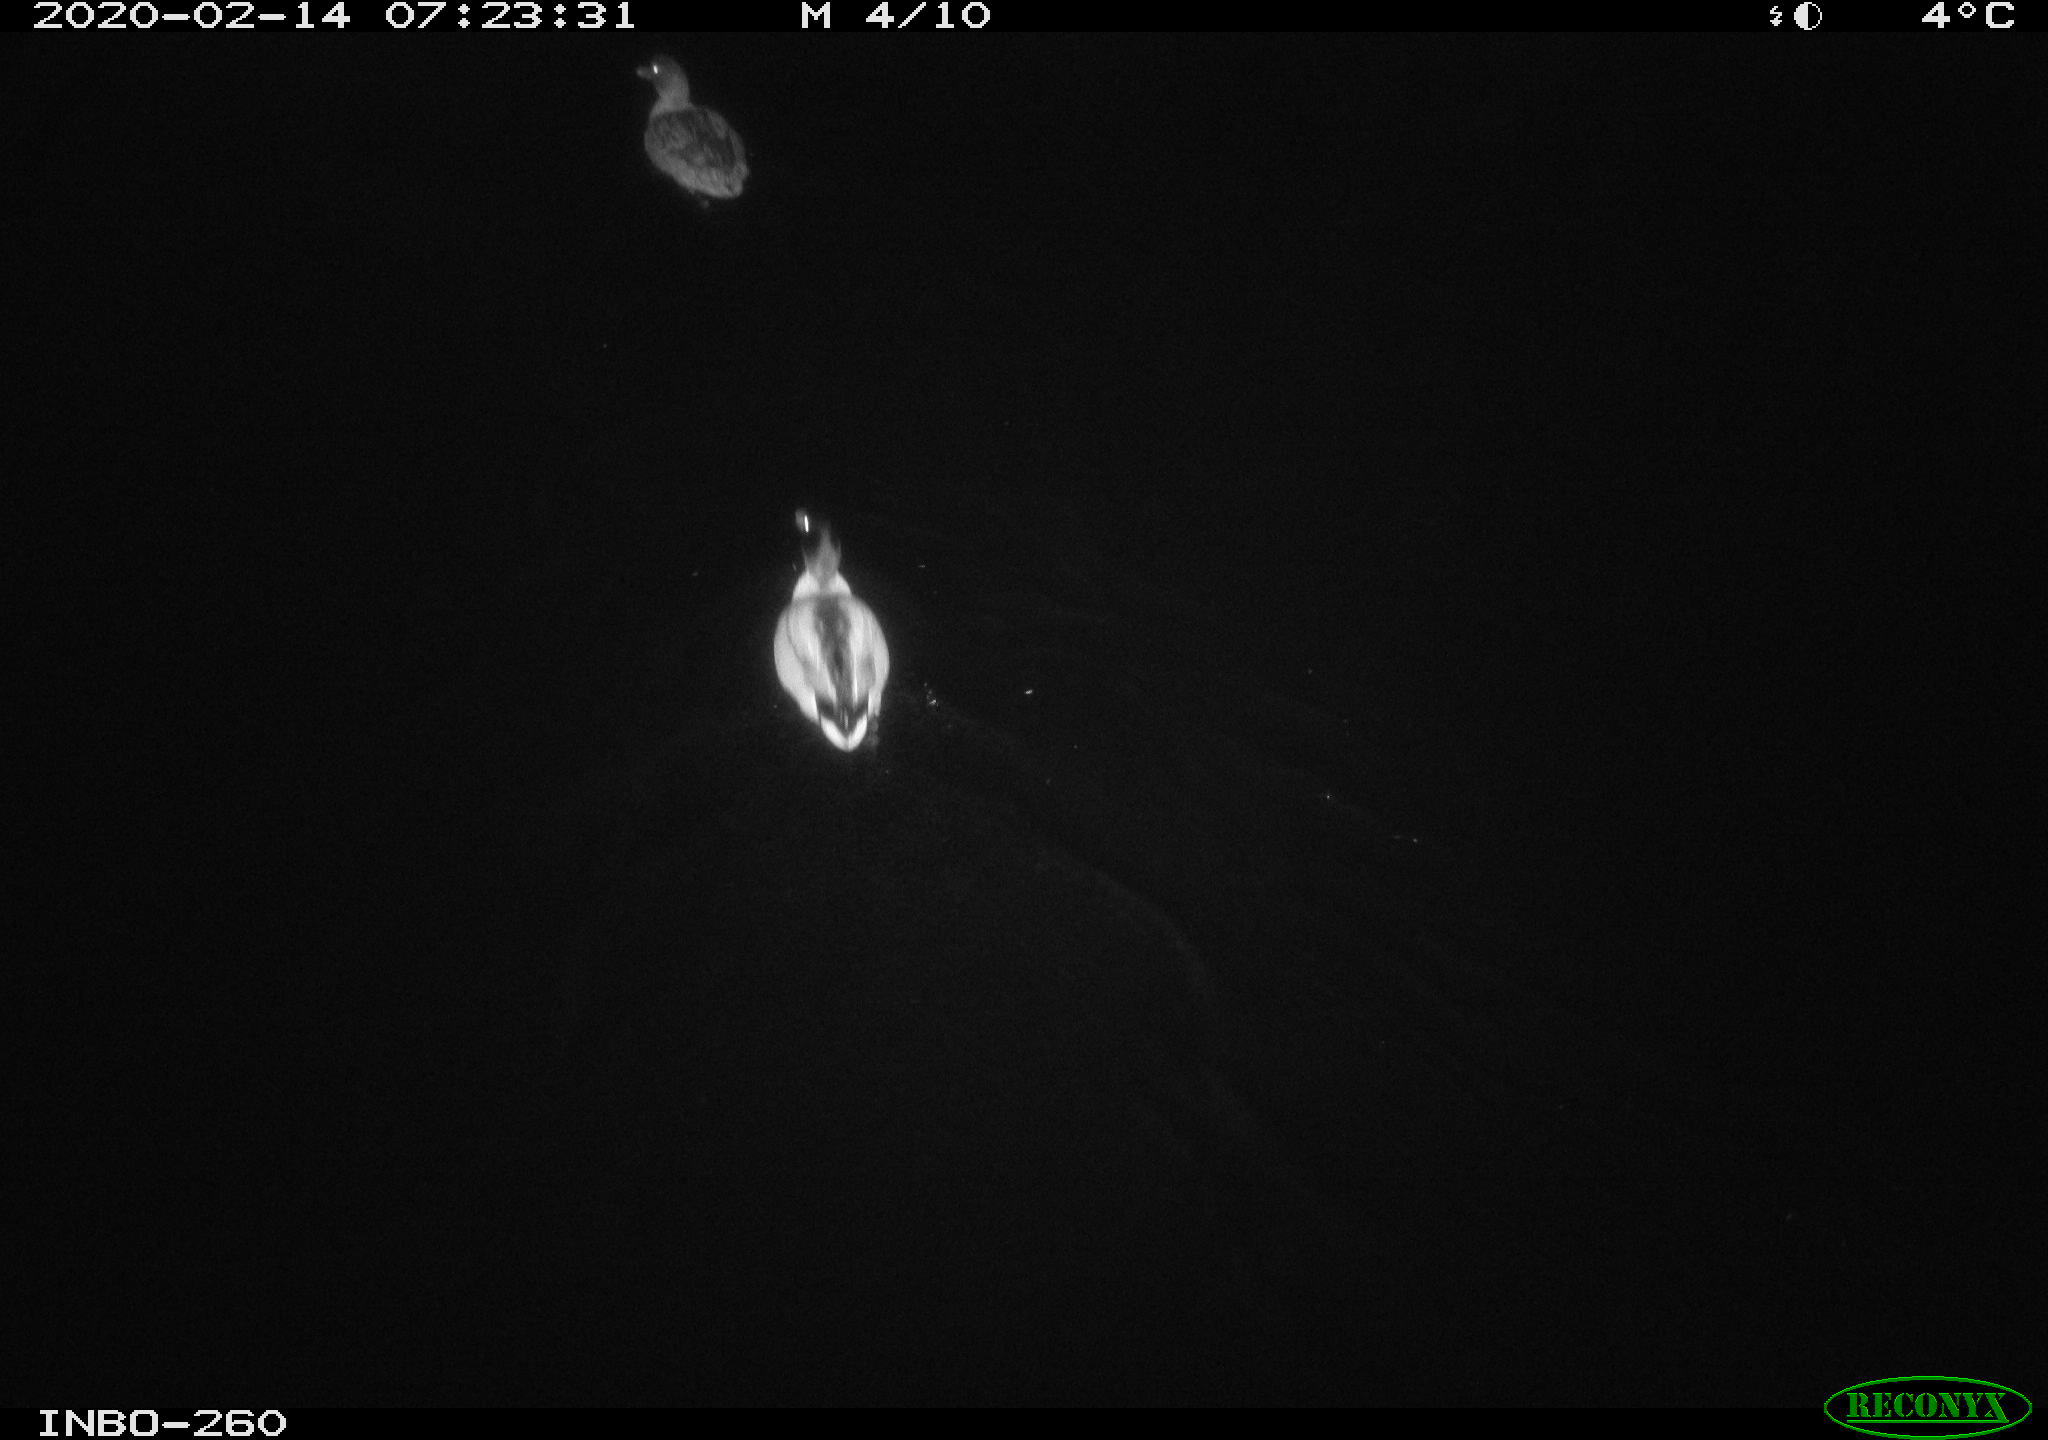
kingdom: Animalia
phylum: Chordata
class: Aves
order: Anseriformes
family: Anatidae
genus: Anas
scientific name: Anas platyrhynchos
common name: Mallard
